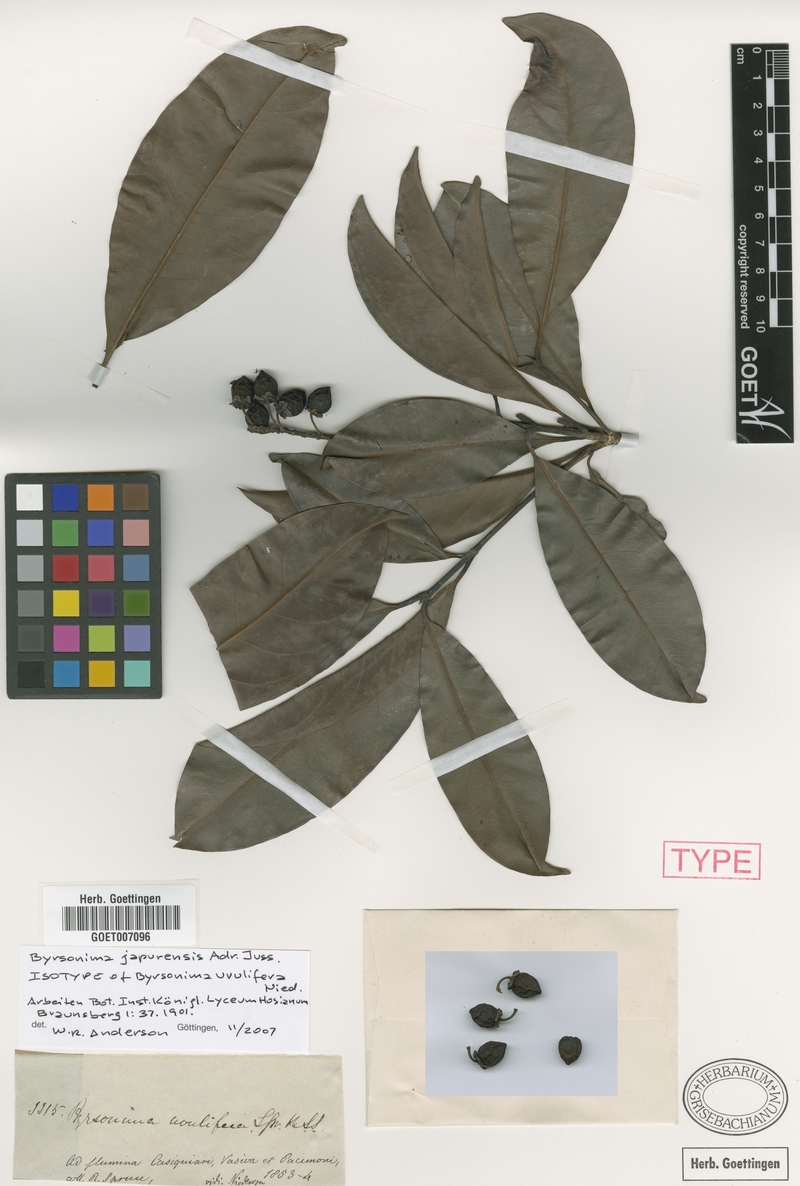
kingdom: Plantae
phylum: Tracheophyta
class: Magnoliopsida
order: Malpighiales
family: Malpighiaceae
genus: Byrsonima
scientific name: Byrsonima japurensis
